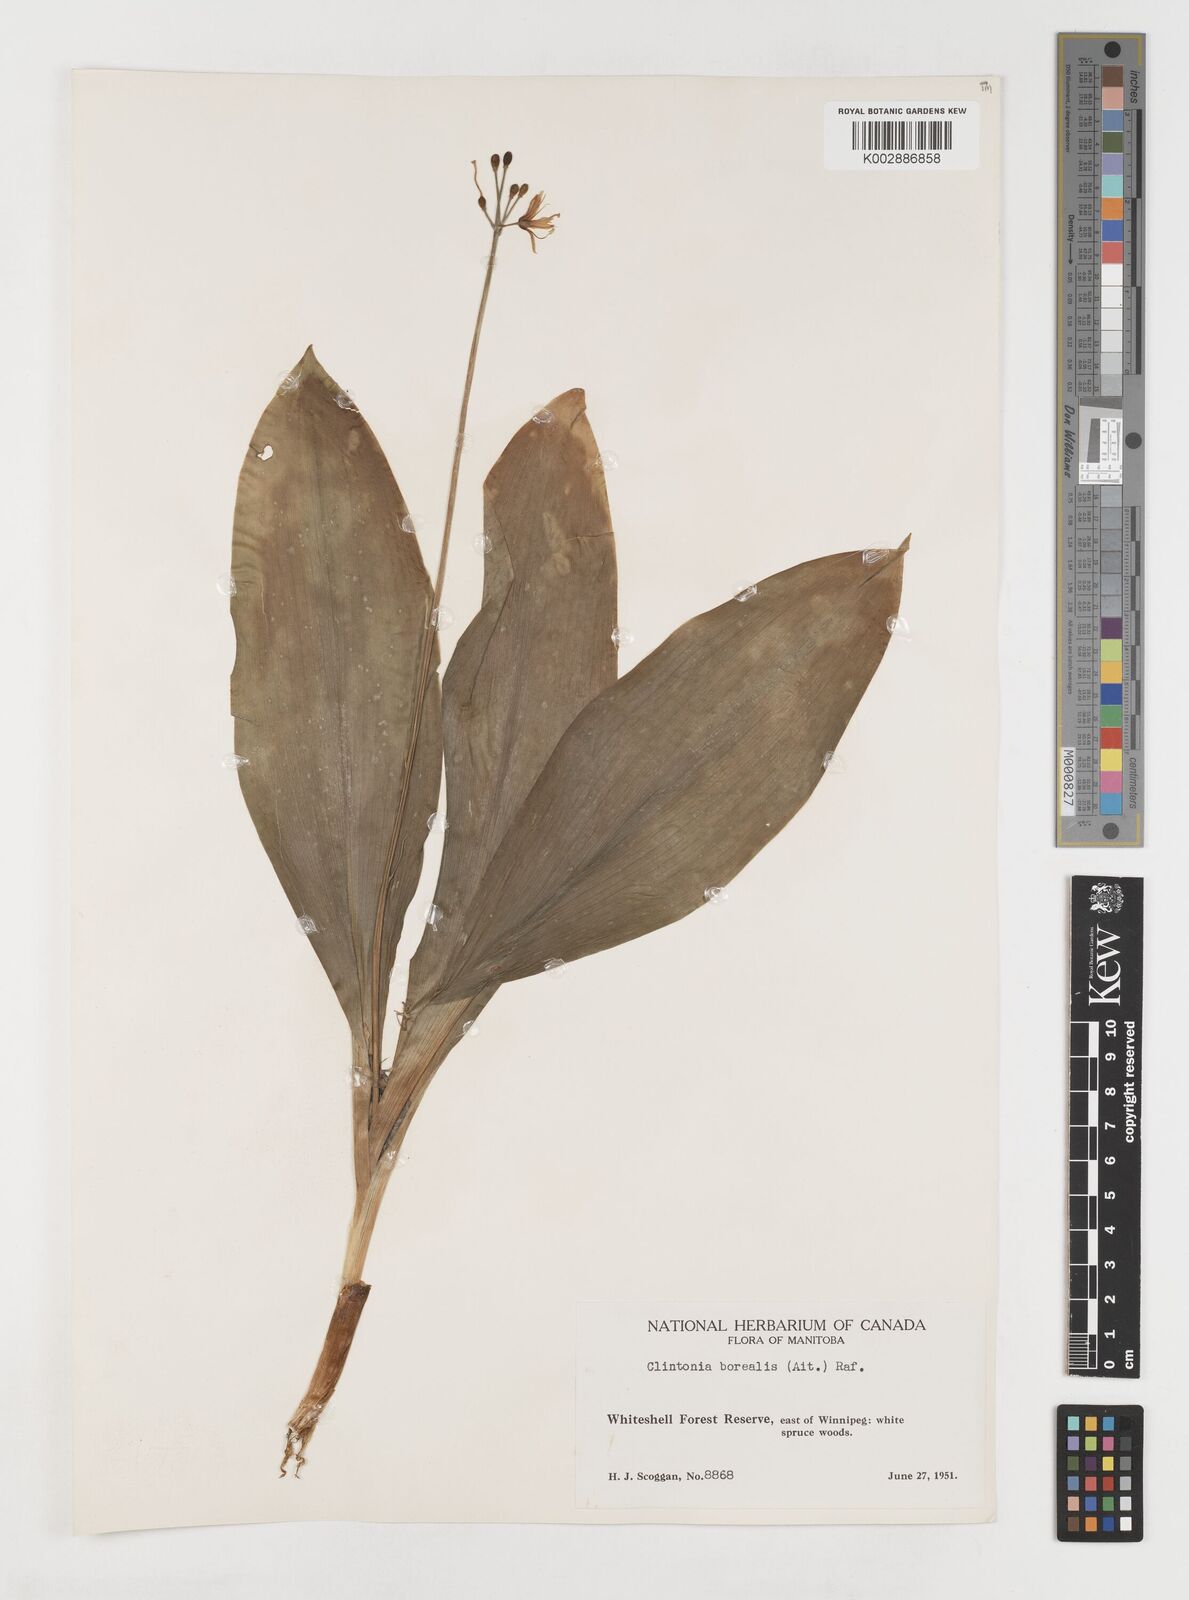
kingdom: Plantae
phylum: Tracheophyta
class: Liliopsida
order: Liliales
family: Liliaceae
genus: Clintonia
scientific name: Clintonia borealis
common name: Yellow clintonia
